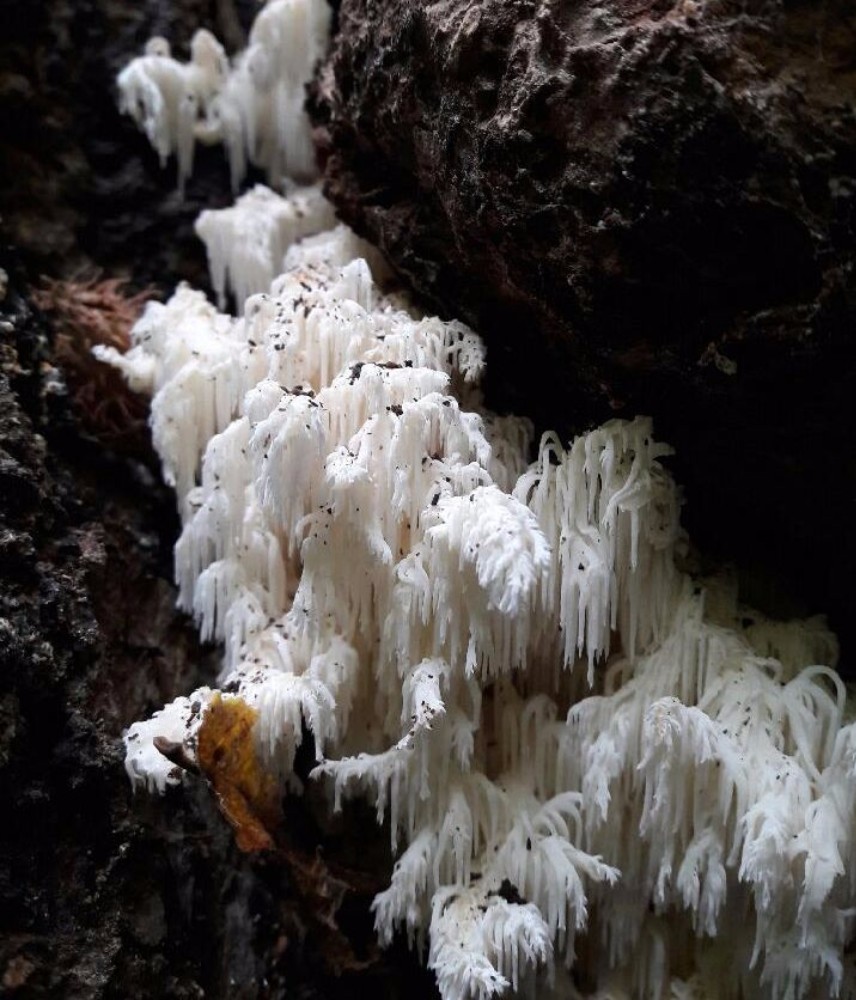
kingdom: Fungi
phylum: Basidiomycota
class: Agaricomycetes
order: Russulales
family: Hericiaceae
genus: Hericium
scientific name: Hericium coralloides
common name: koralpigsvamp
